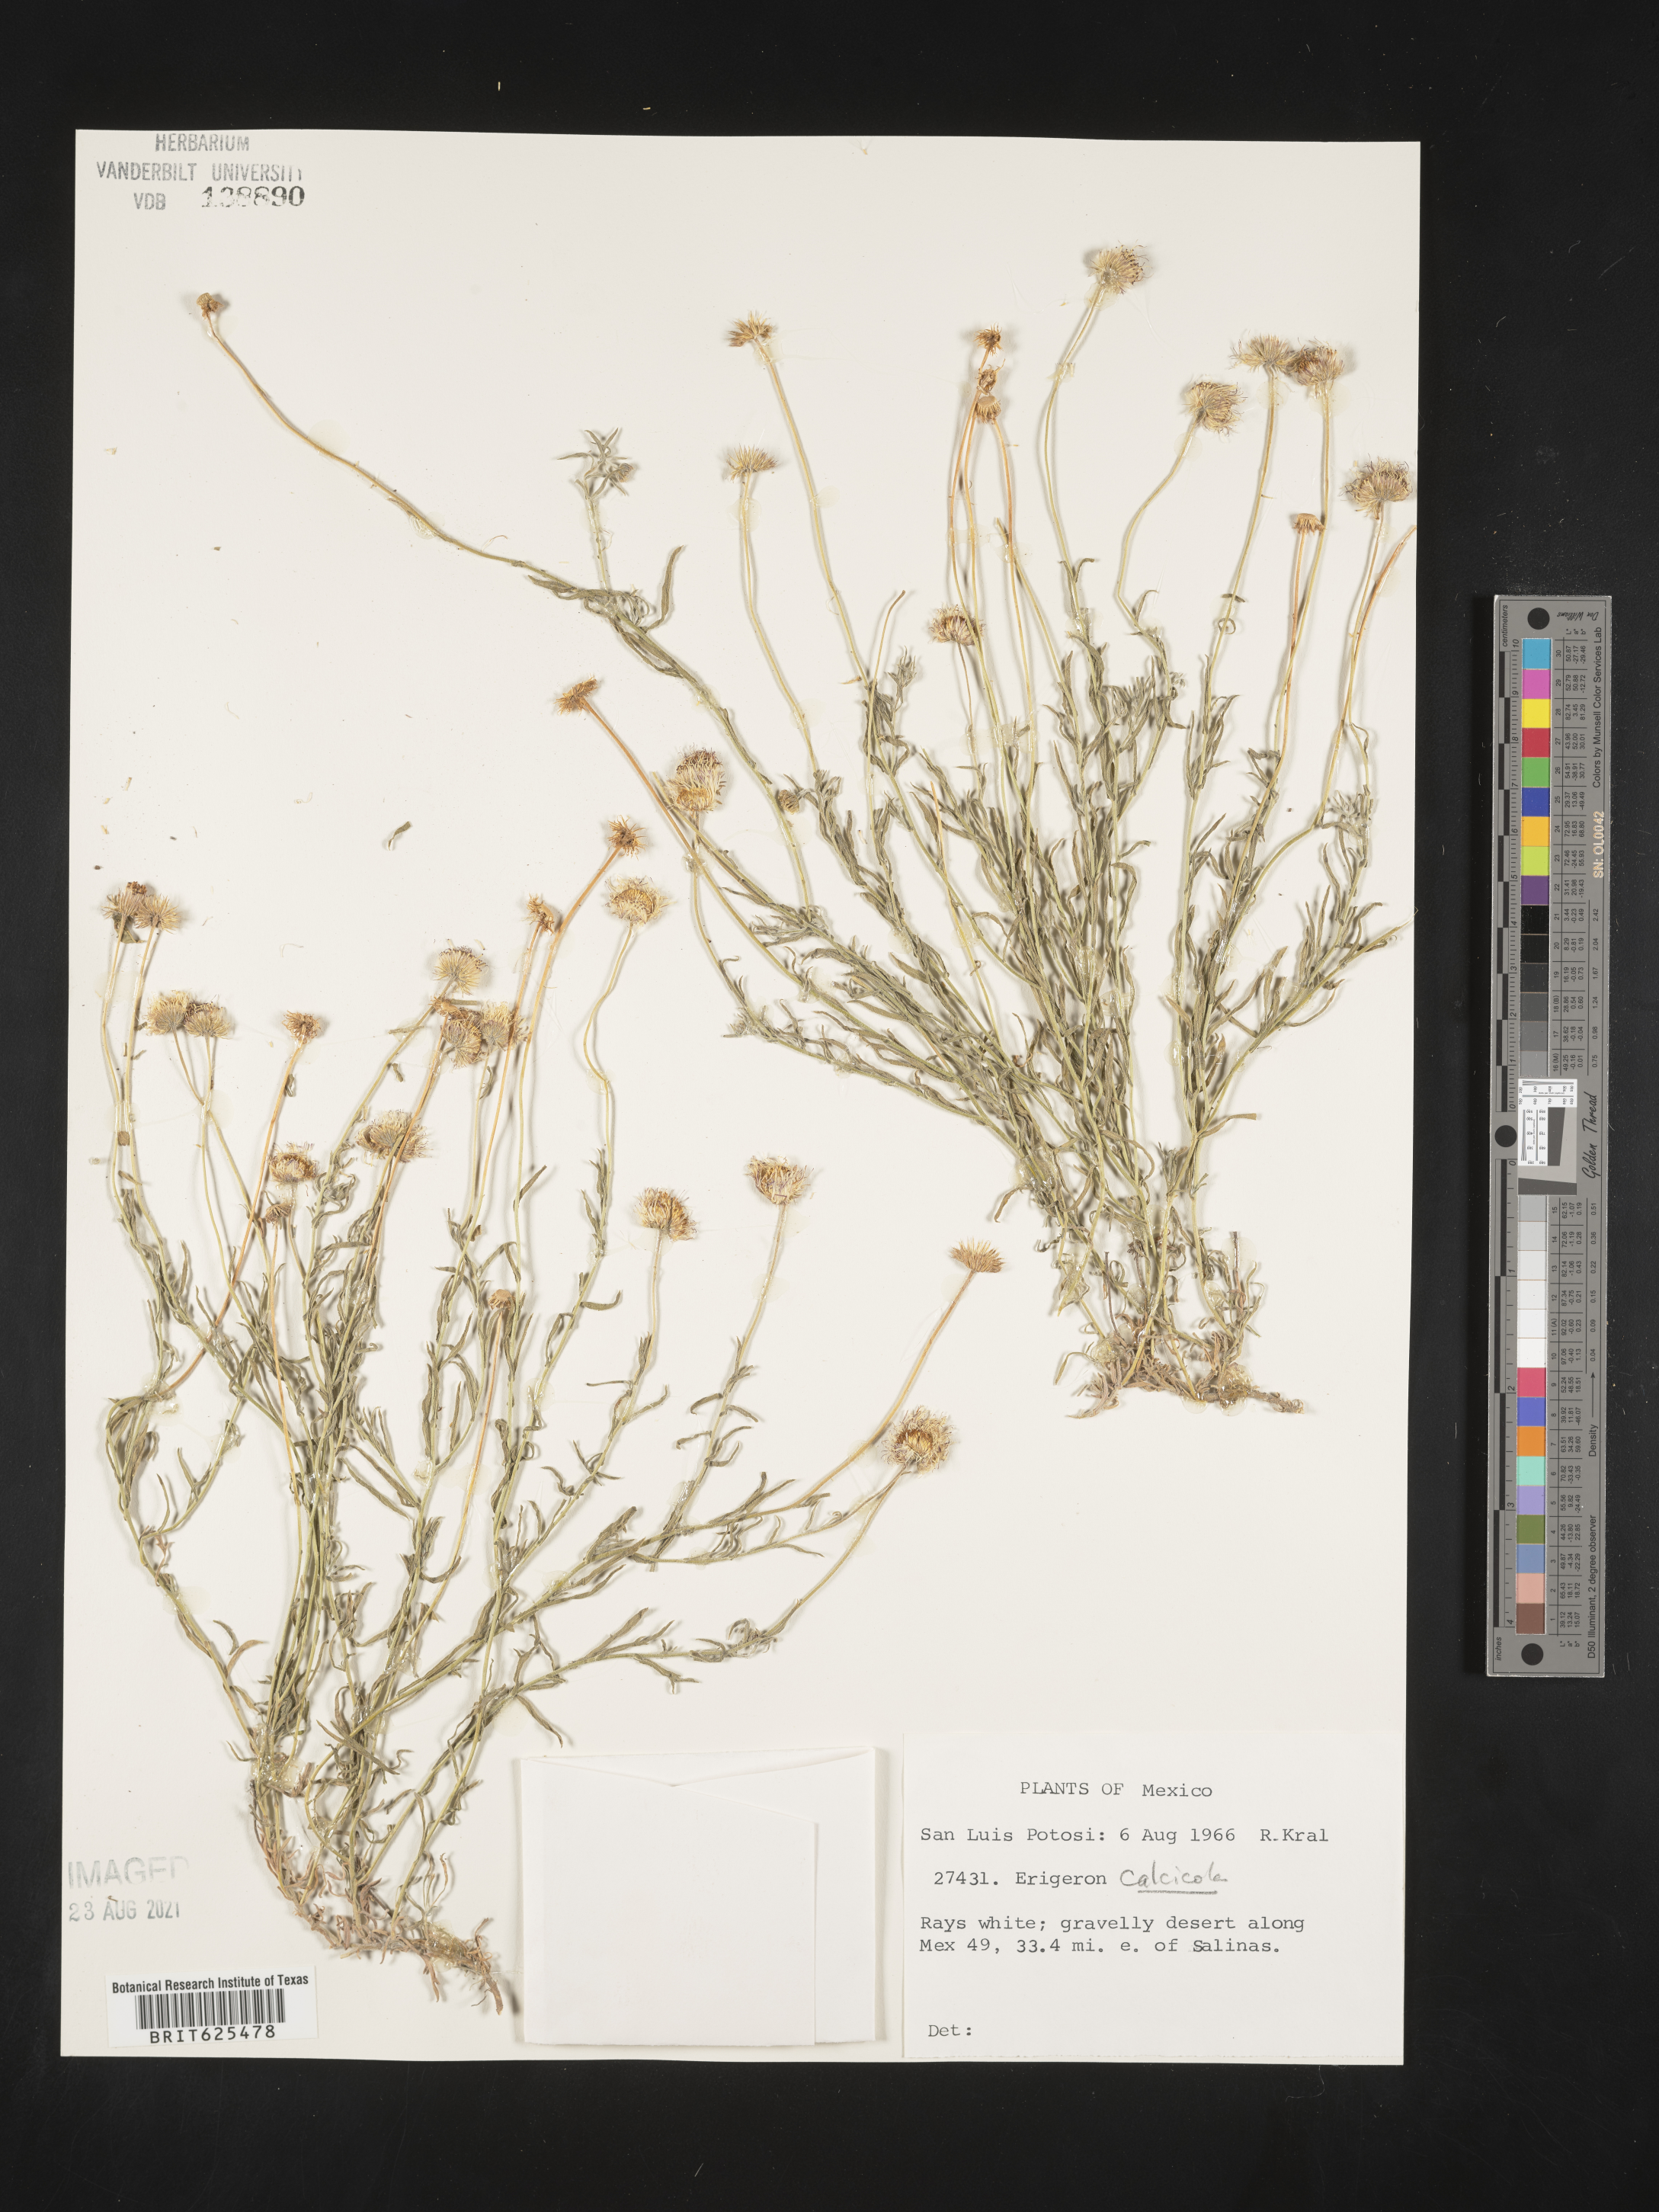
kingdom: Plantae
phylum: Tracheophyta
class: Magnoliopsida
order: Asterales
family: Asteraceae
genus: Erigeron
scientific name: Erigeron
